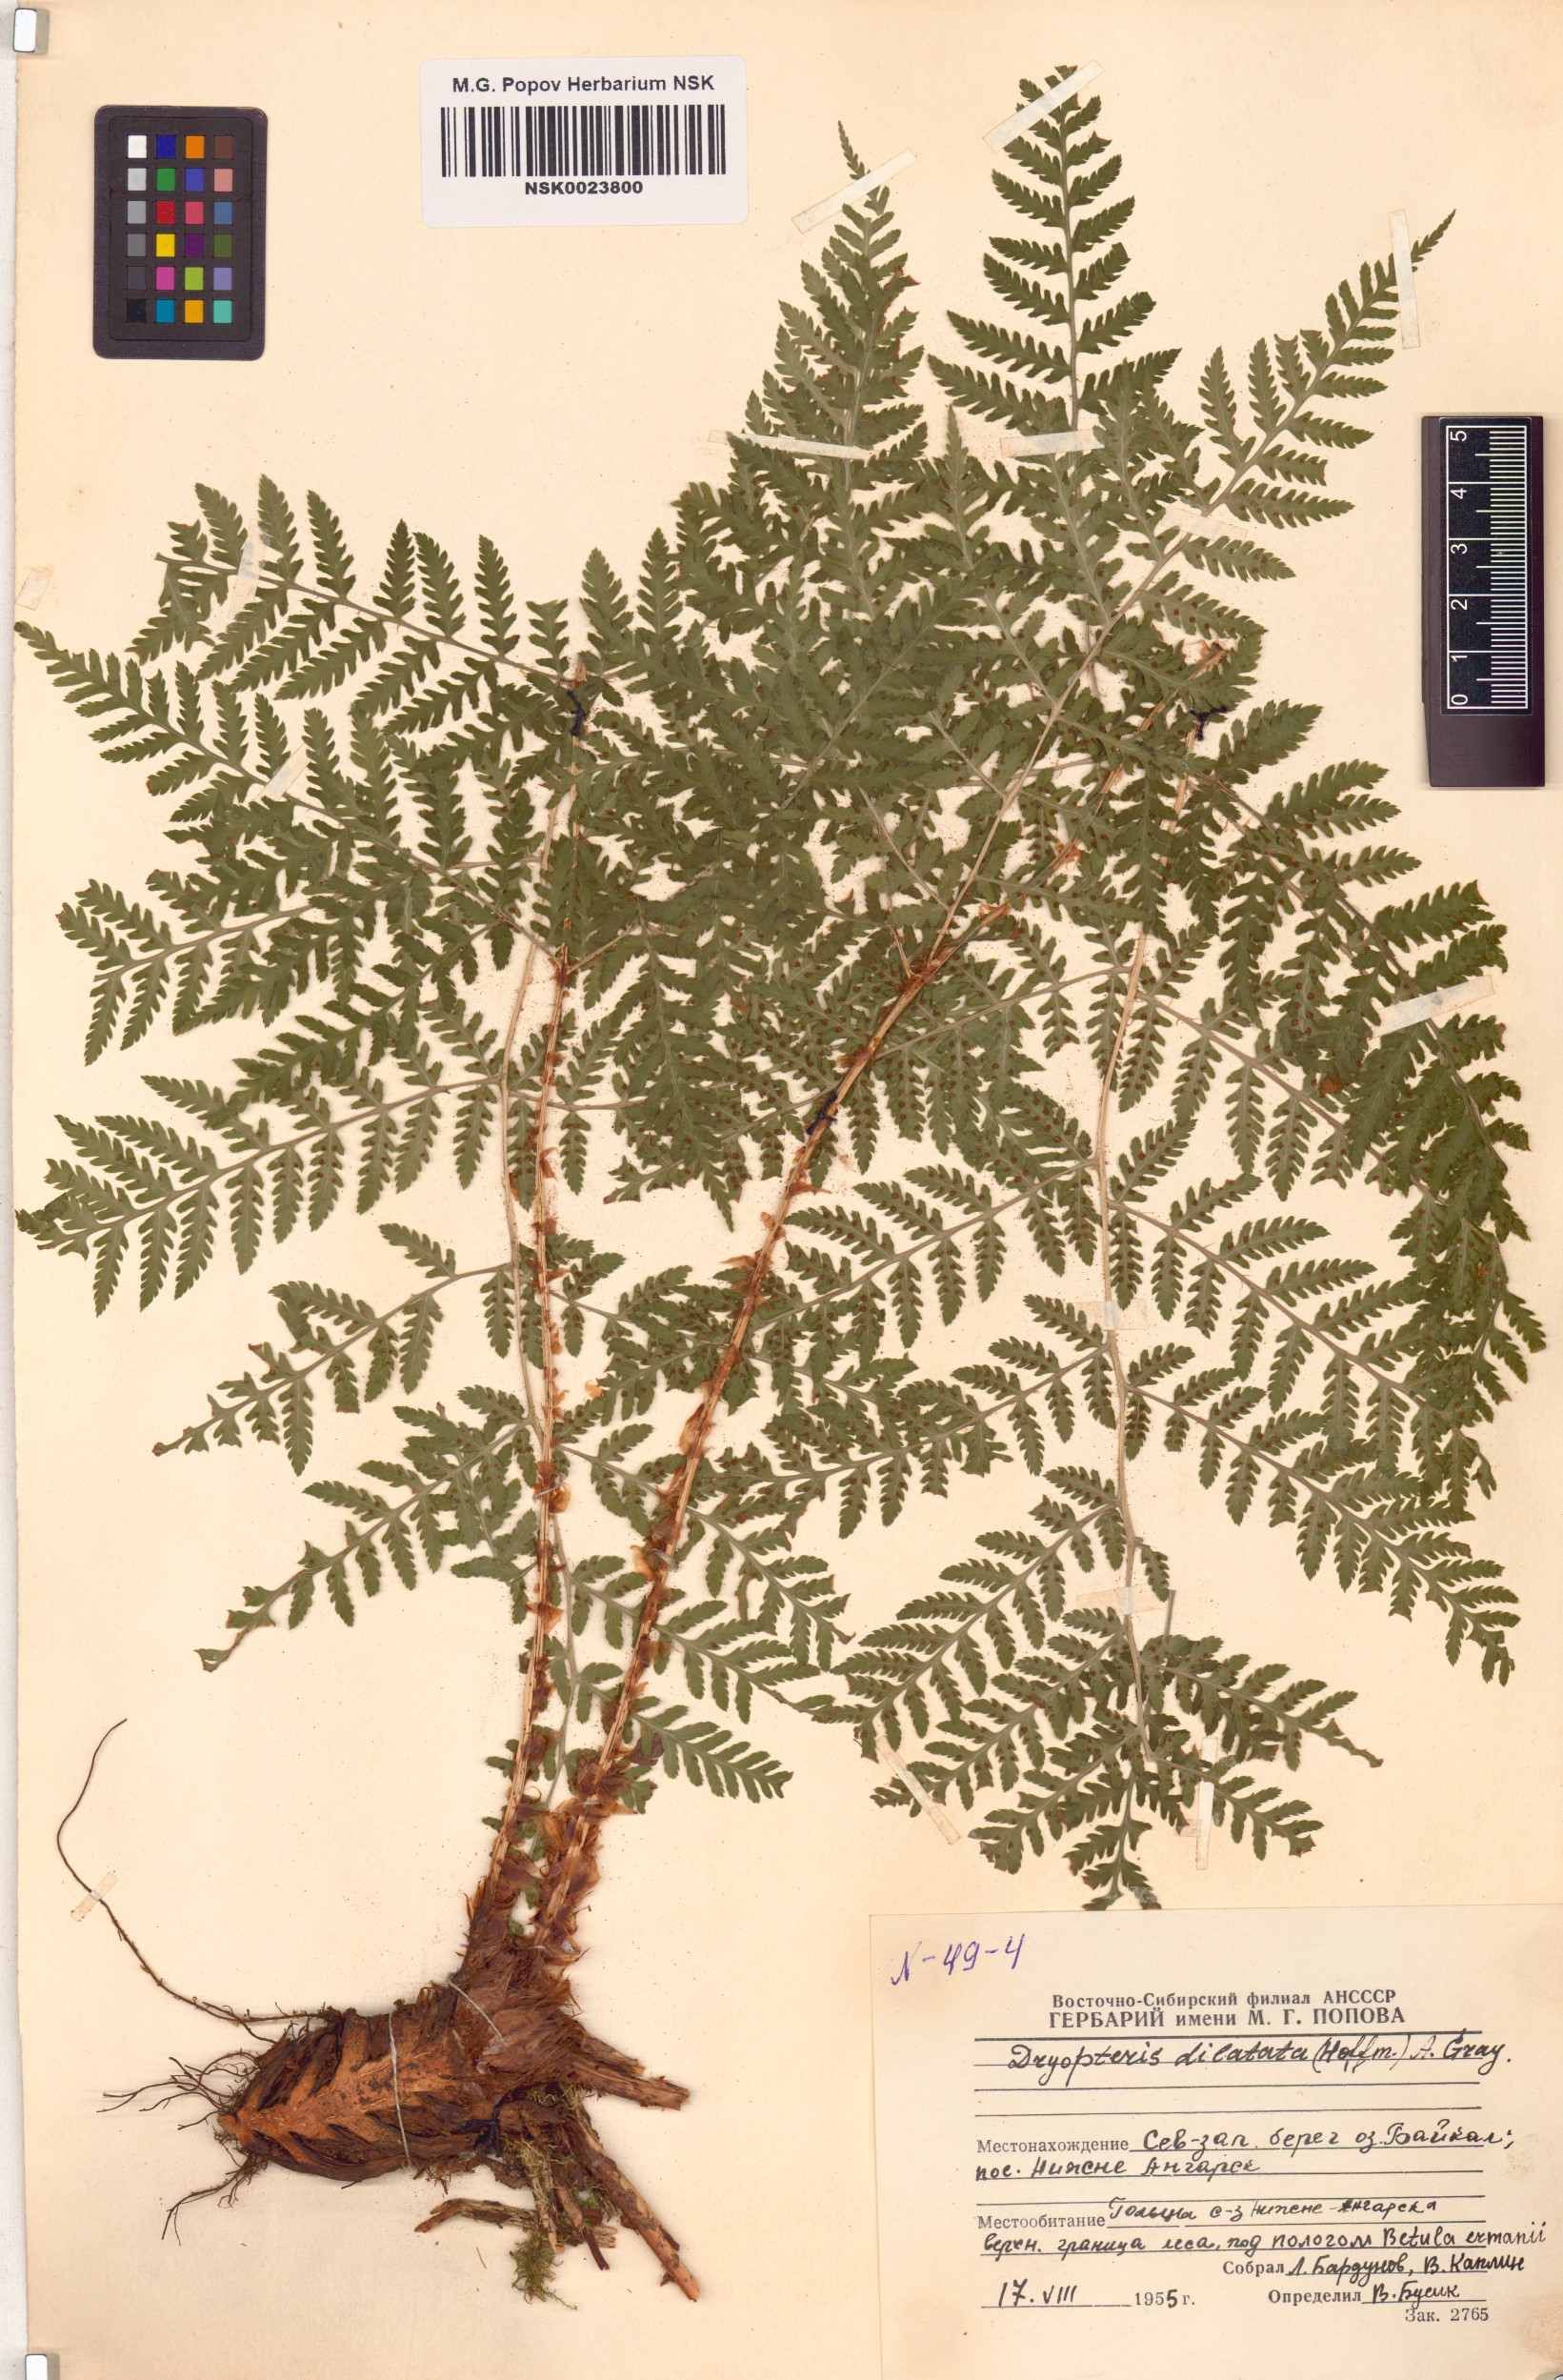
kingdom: Plantae
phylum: Tracheophyta
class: Polypodiopsida
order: Polypodiales
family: Dryopteridaceae
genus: Dryopteris
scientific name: Dryopteris dilatata
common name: Broad buckler-fern
